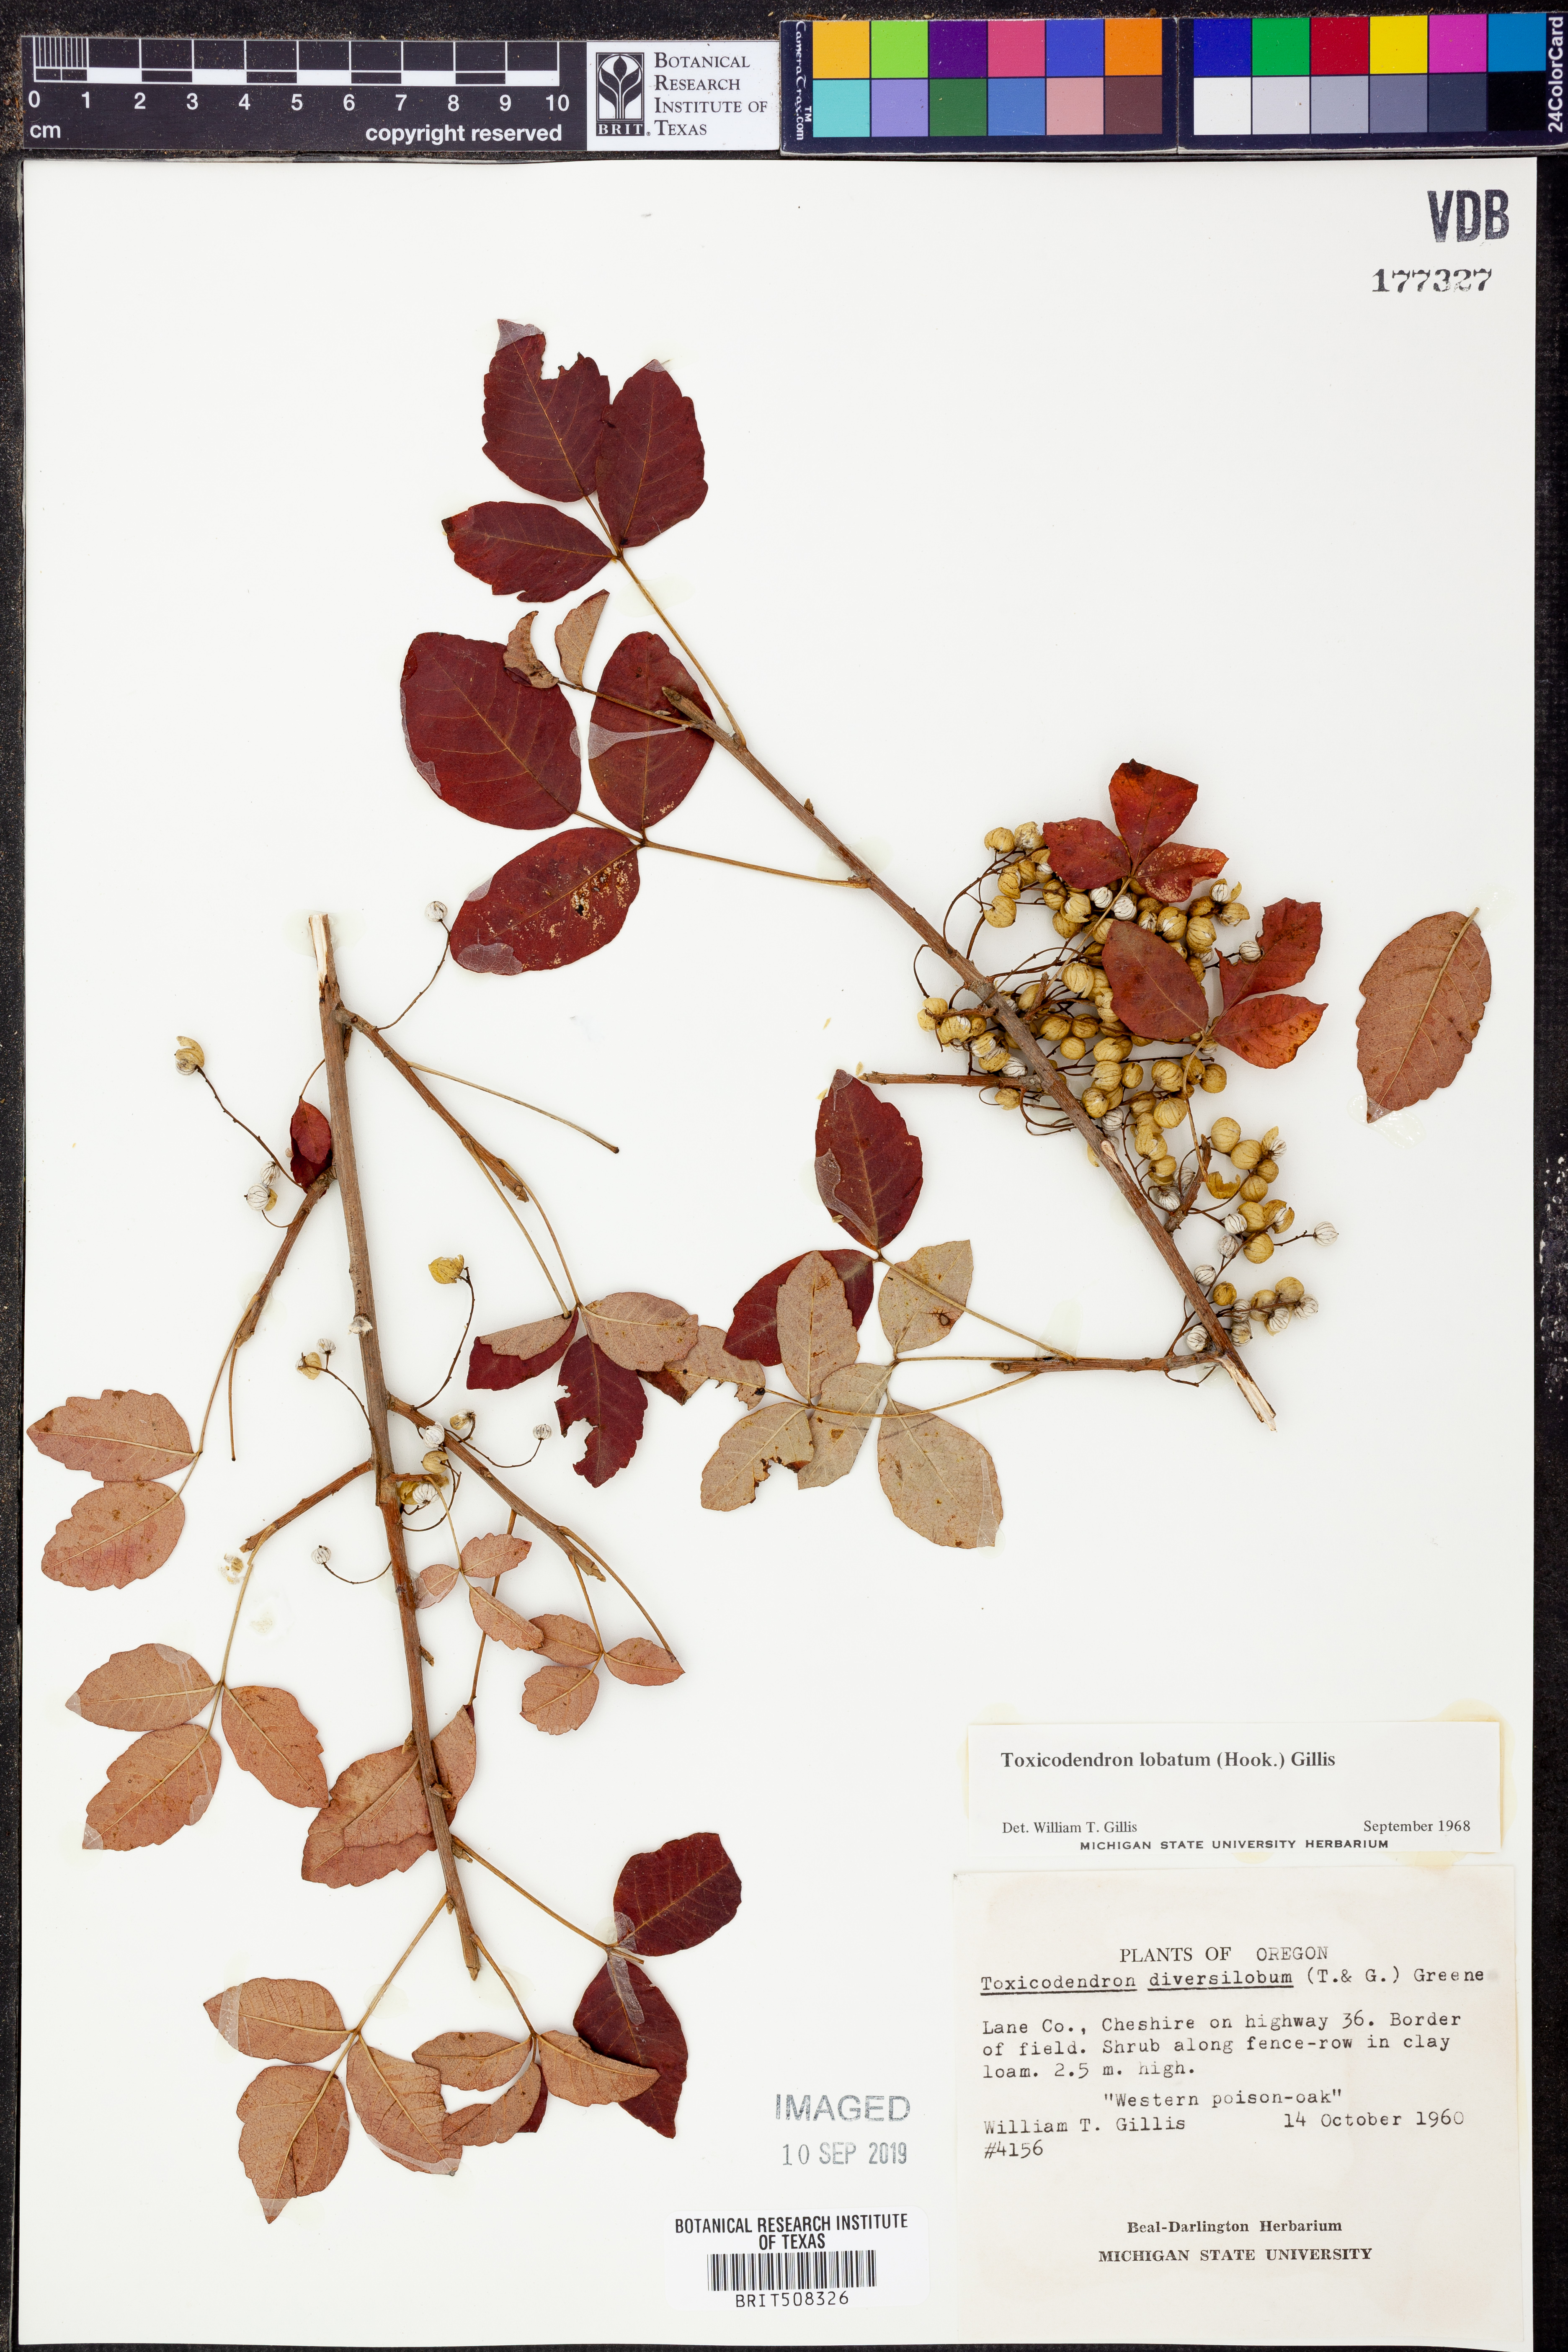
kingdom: Plantae
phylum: Tracheophyta
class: Magnoliopsida
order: Sapindales
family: Anacardiaceae
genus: Toxicodendron
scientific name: Toxicodendron
